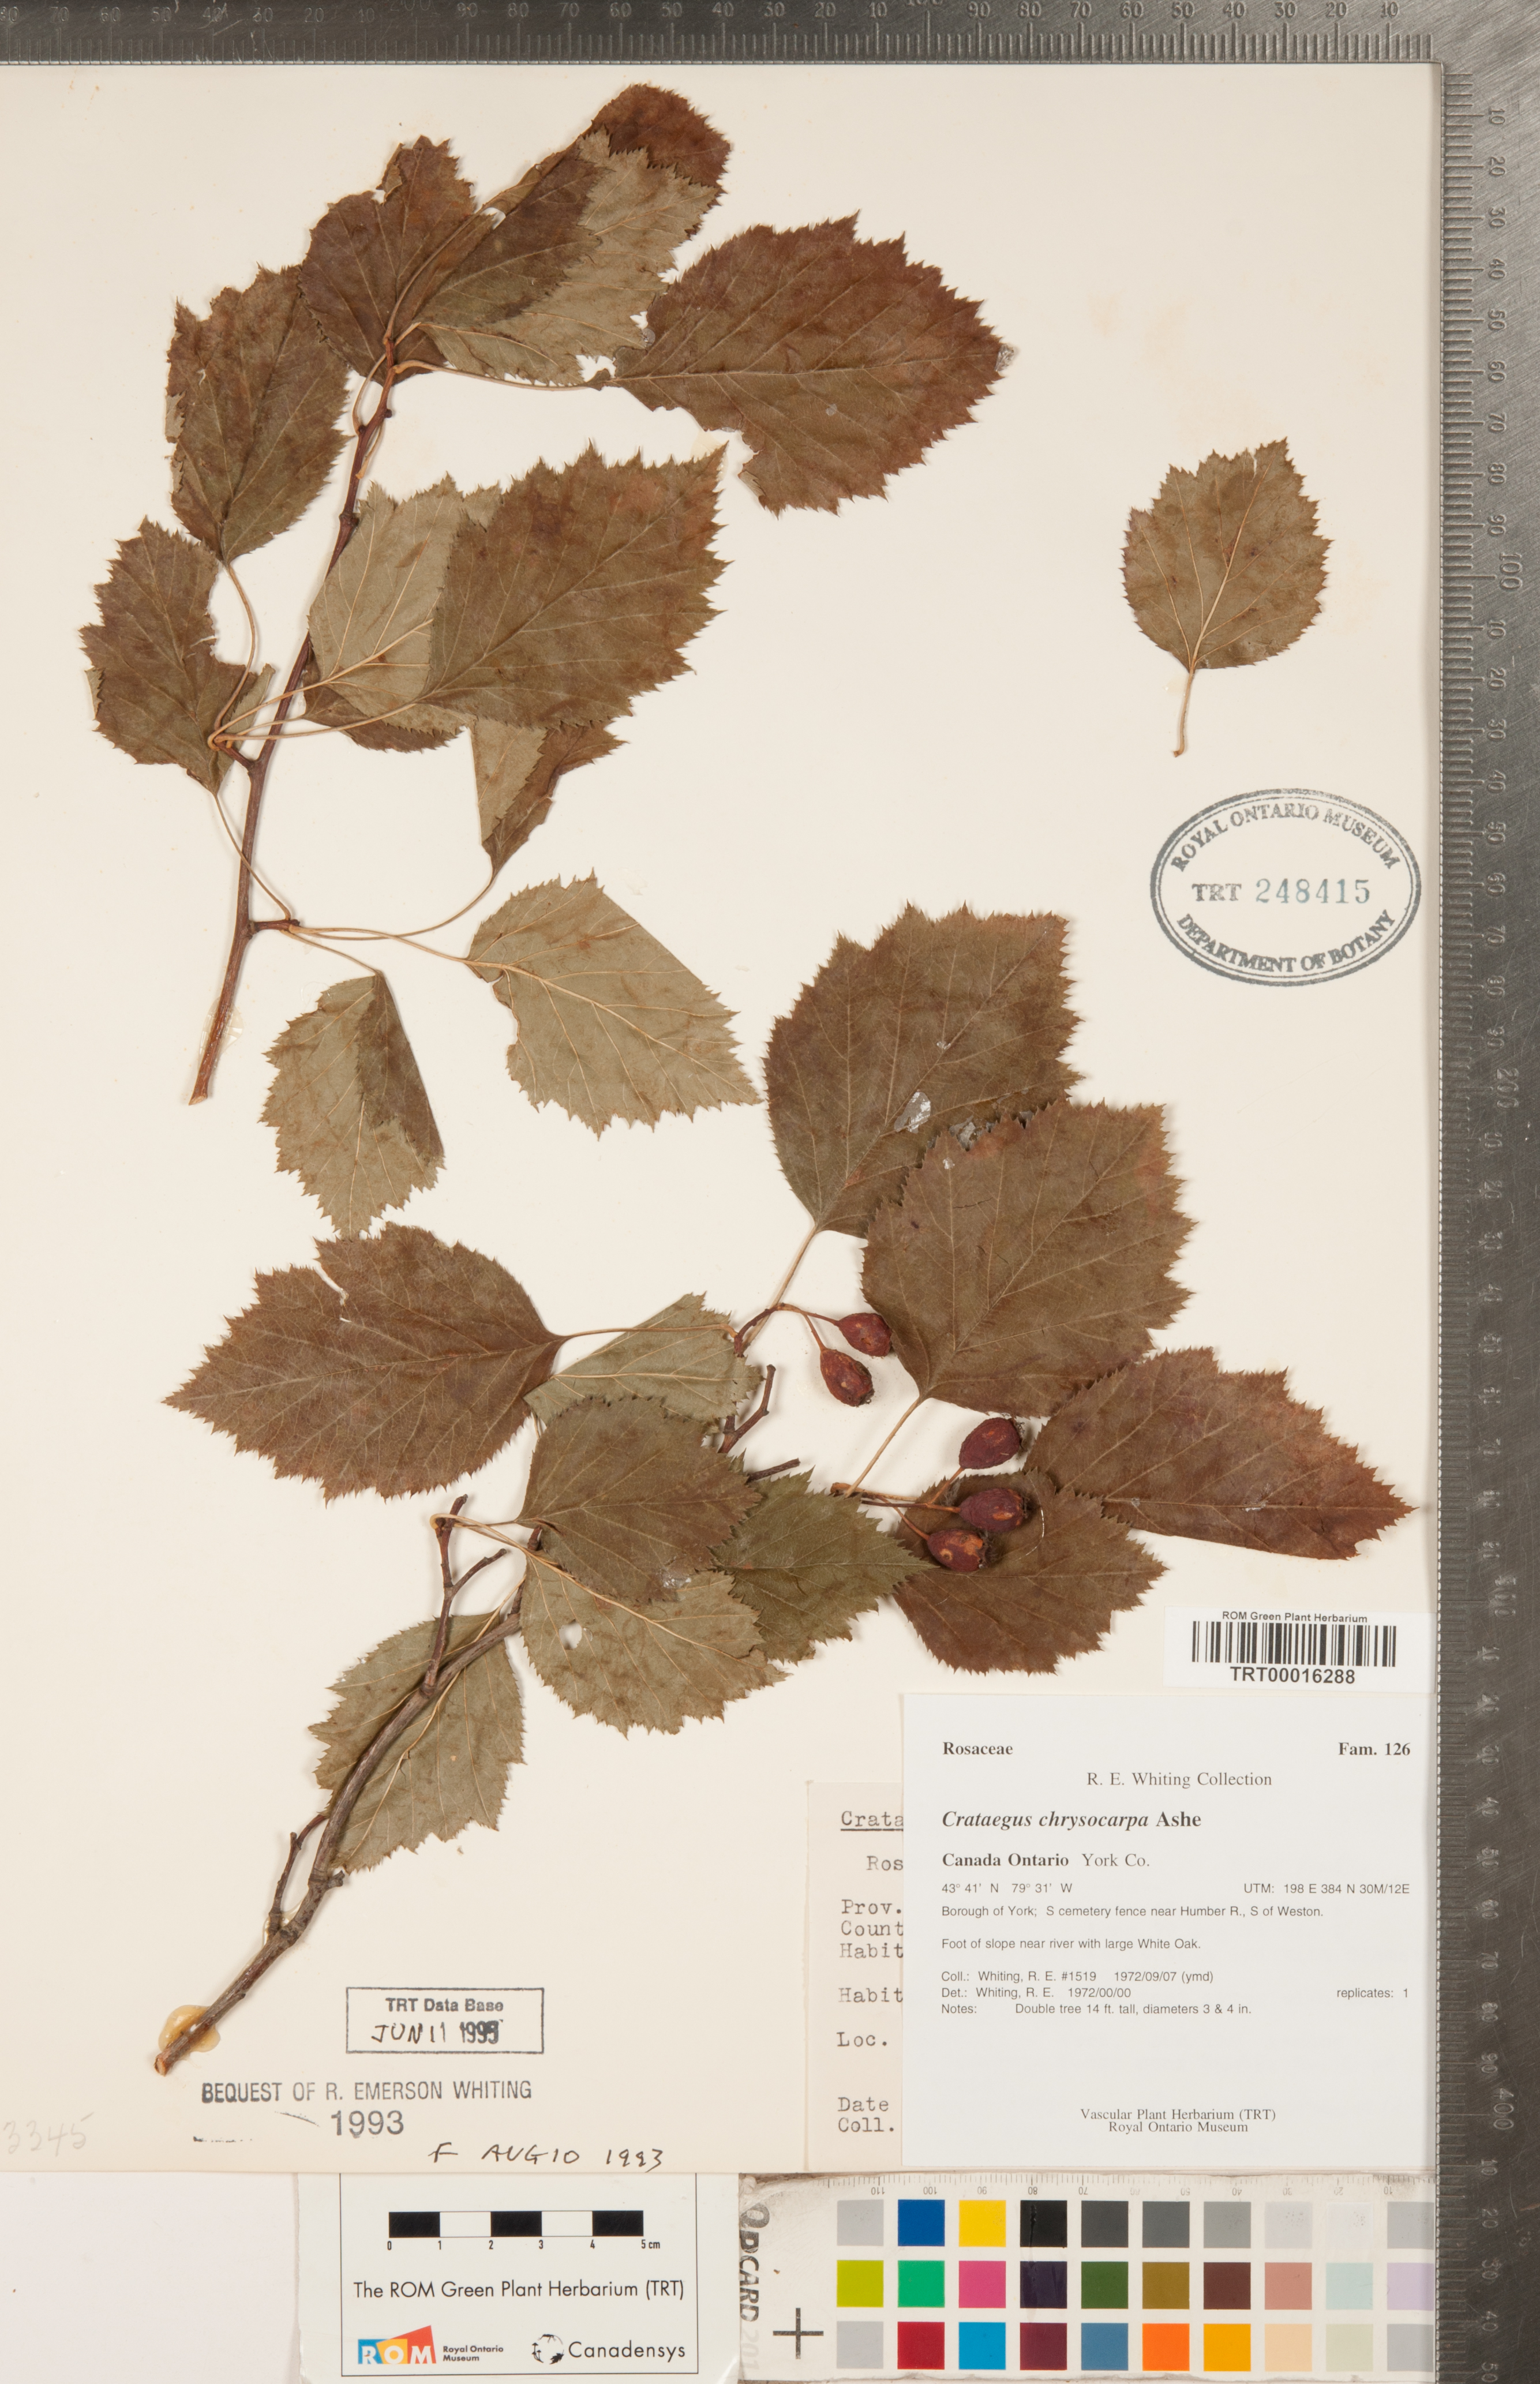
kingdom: Plantae
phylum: Tracheophyta
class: Magnoliopsida
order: Rosales
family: Rosaceae
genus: Crataegus
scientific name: Crataegus chrysocarpa
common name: Fire-berry hawthorn
